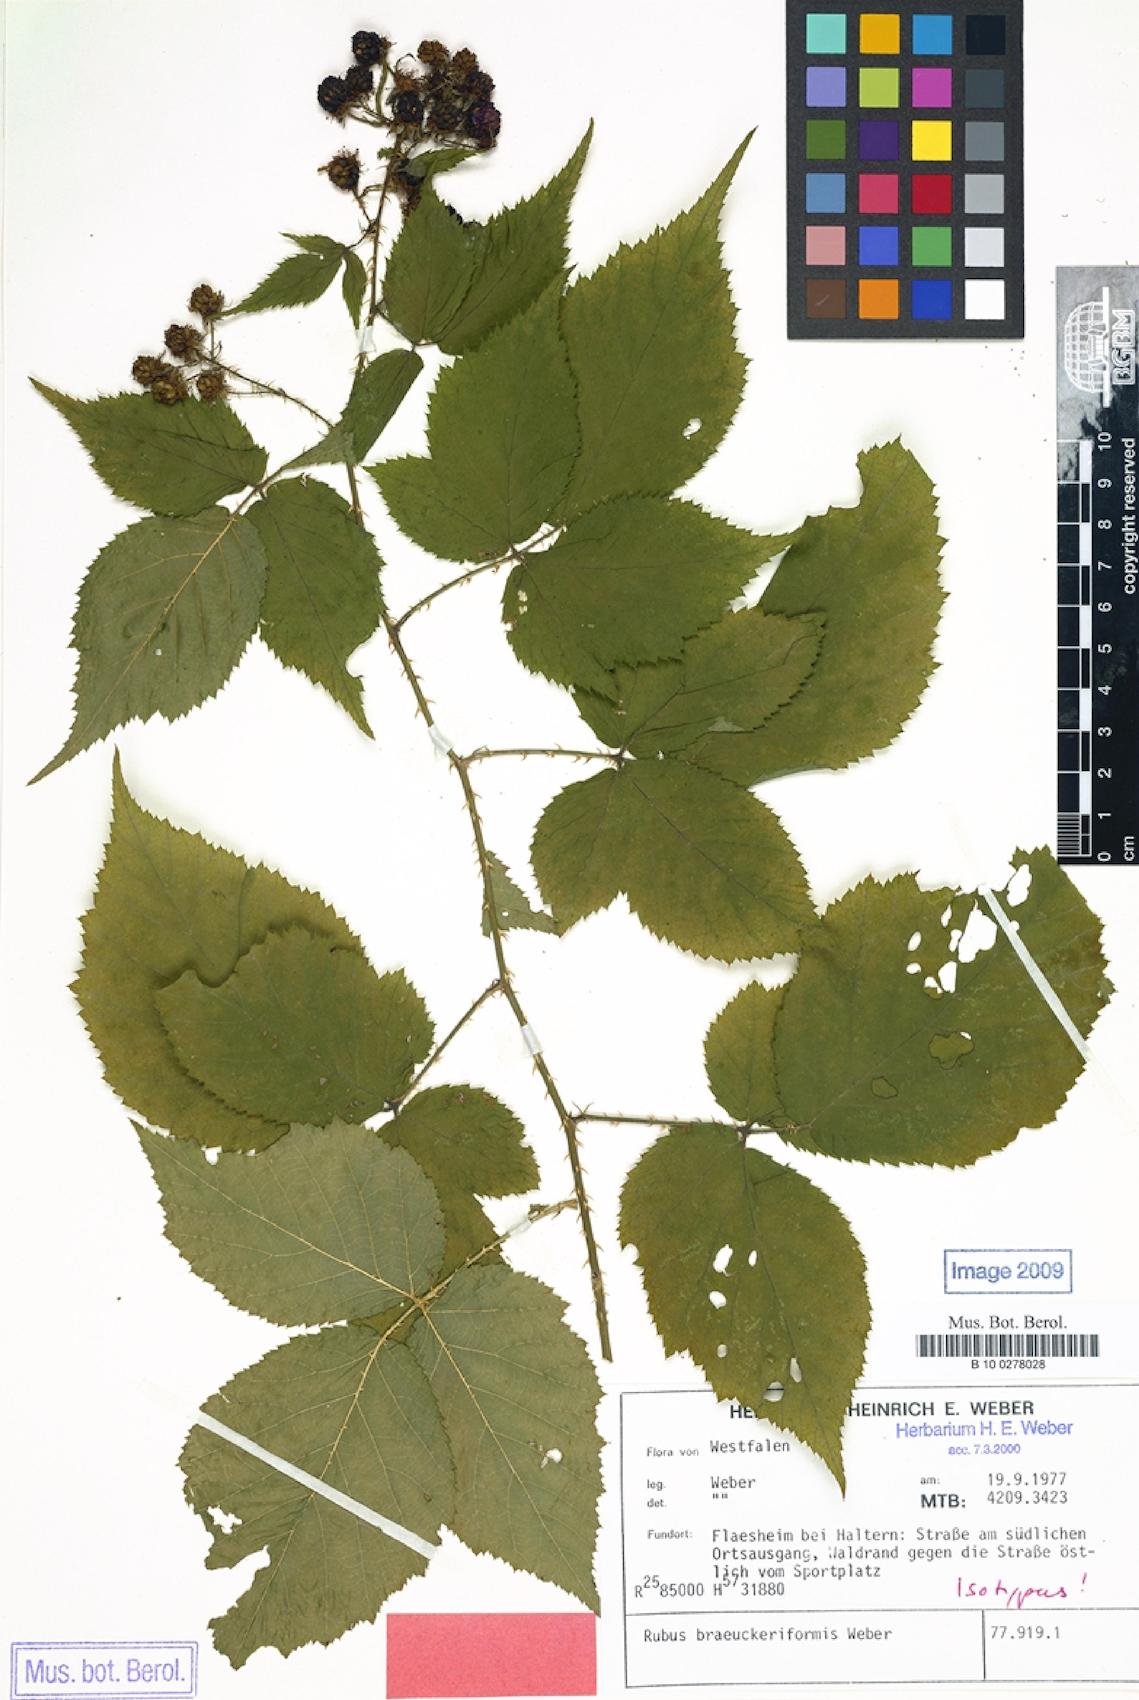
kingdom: Plantae
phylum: Tracheophyta
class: Magnoliopsida
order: Rosales
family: Rosaceae
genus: Rubus
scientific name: Rubus braeuckeriformis
